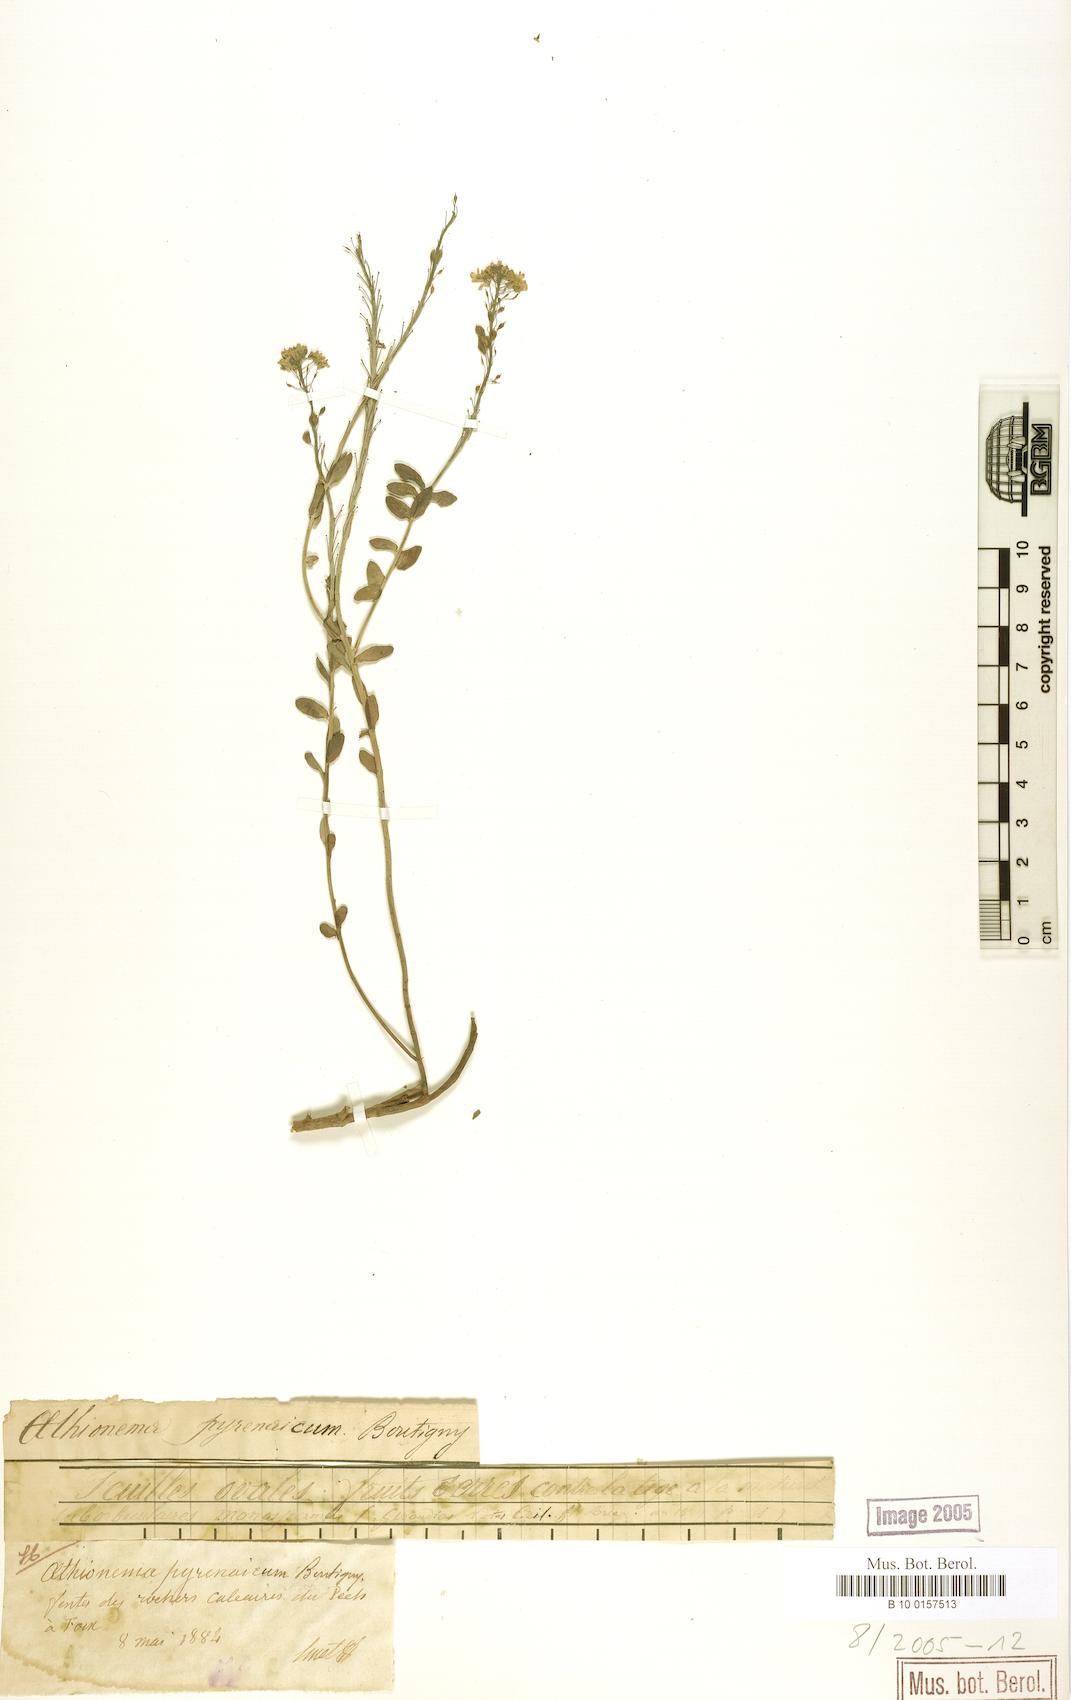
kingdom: Plantae
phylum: Tracheophyta
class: Magnoliopsida
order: Brassicales
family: Brassicaceae
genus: Aethionema
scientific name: Aethionema saxatile
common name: Burnt candytuft
